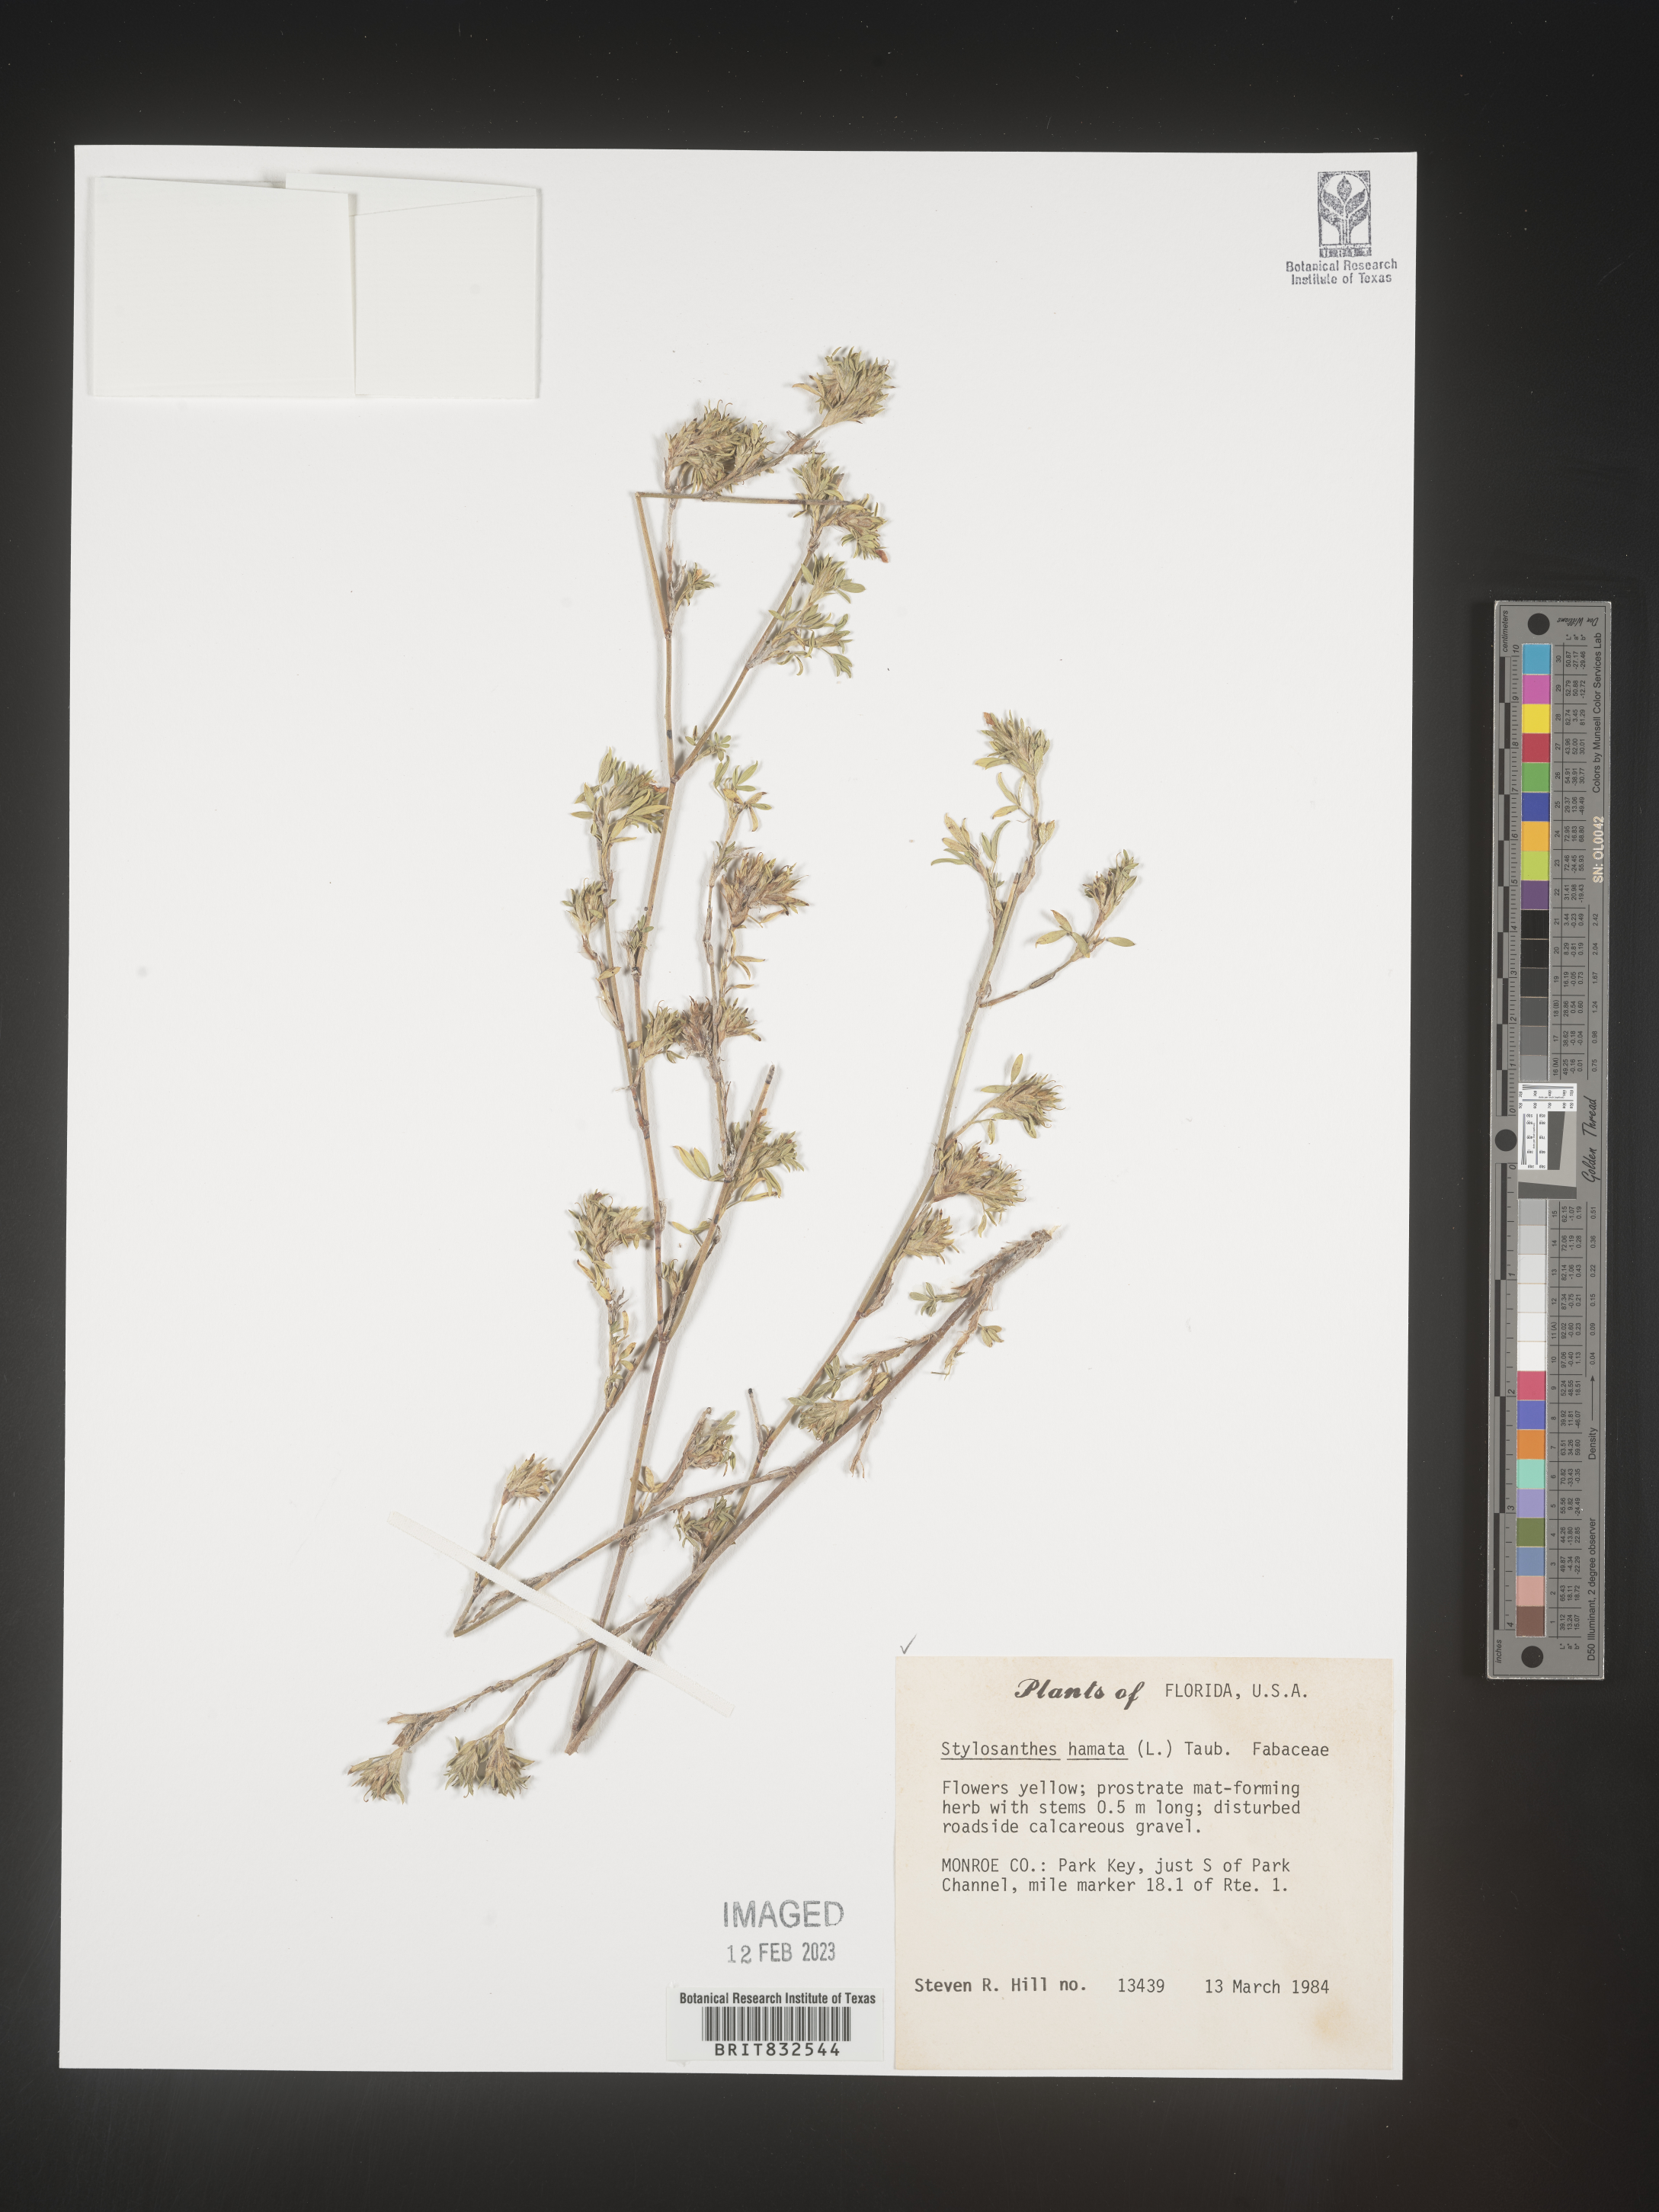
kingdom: Plantae
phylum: Tracheophyta
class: Magnoliopsida
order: Fabales
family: Fabaceae
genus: Stylosanthes
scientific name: Stylosanthes
